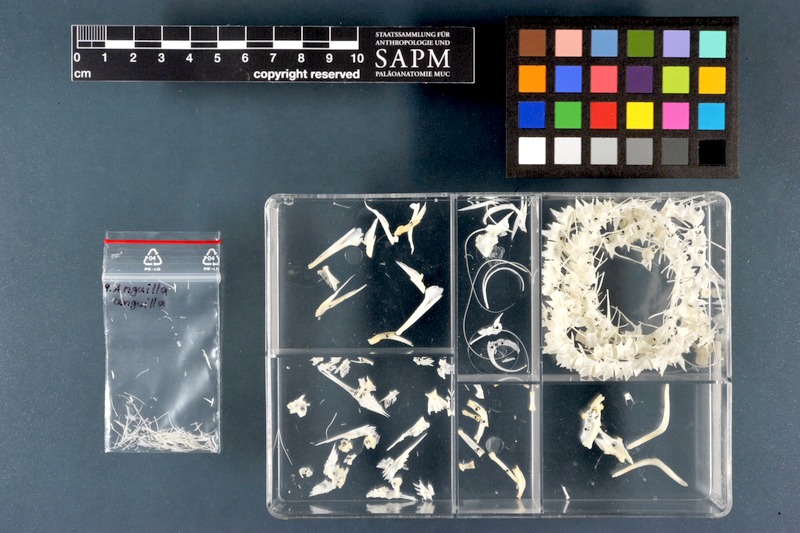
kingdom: Animalia
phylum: Chordata
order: Anguilliformes
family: Anguillidae
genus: Anguilla
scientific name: Anguilla anguilla
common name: European eel
